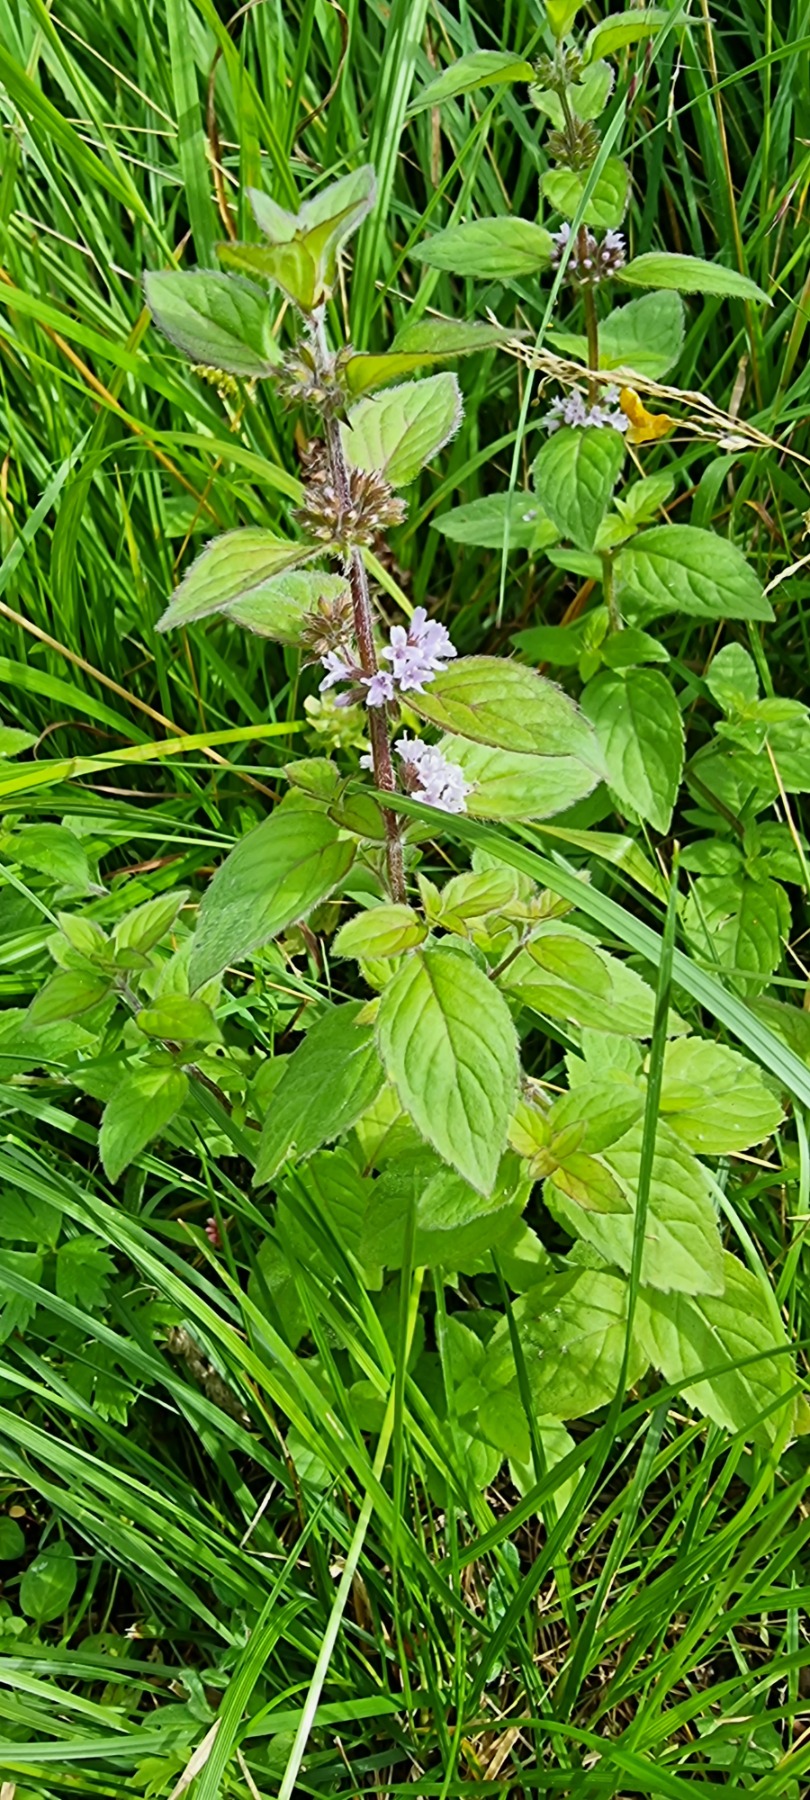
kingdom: Plantae
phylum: Tracheophyta
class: Magnoliopsida
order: Lamiales
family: Lamiaceae
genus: Mentha
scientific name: Mentha verticillata
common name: Krans-mynte
